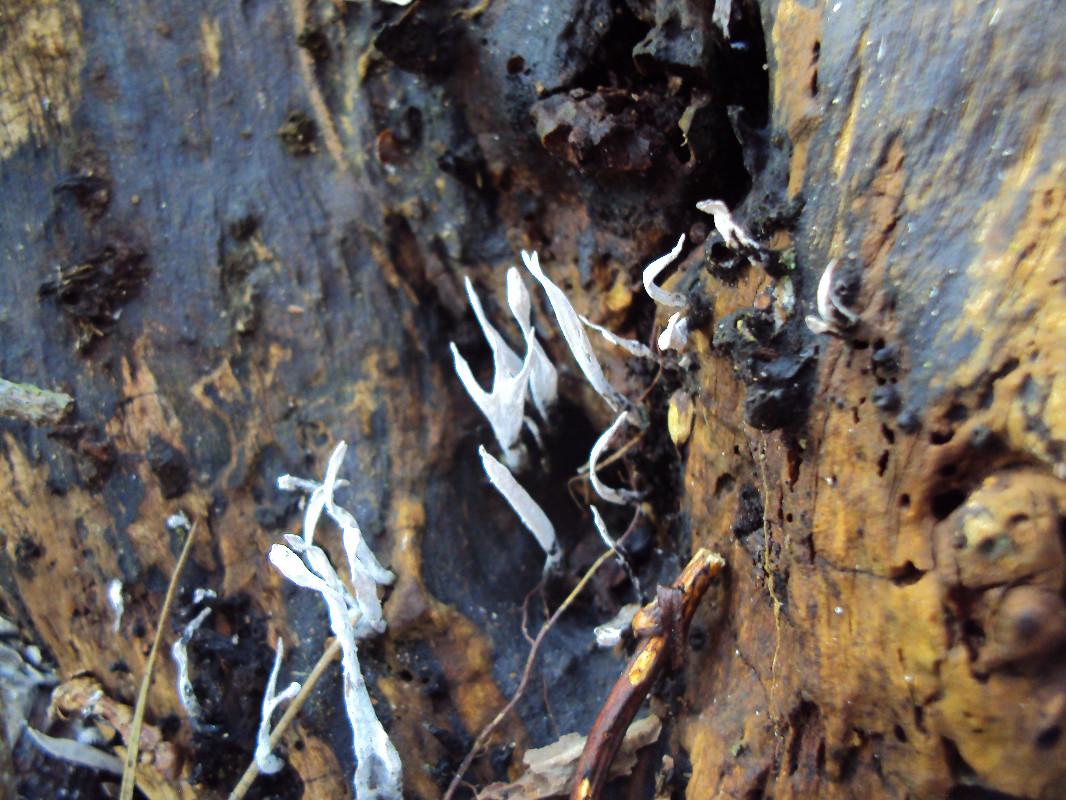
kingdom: Fungi
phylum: Ascomycota
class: Sordariomycetes
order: Xylariales
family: Xylariaceae
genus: Xylaria
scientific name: Xylaria hypoxylon
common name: grenet stødsvamp
